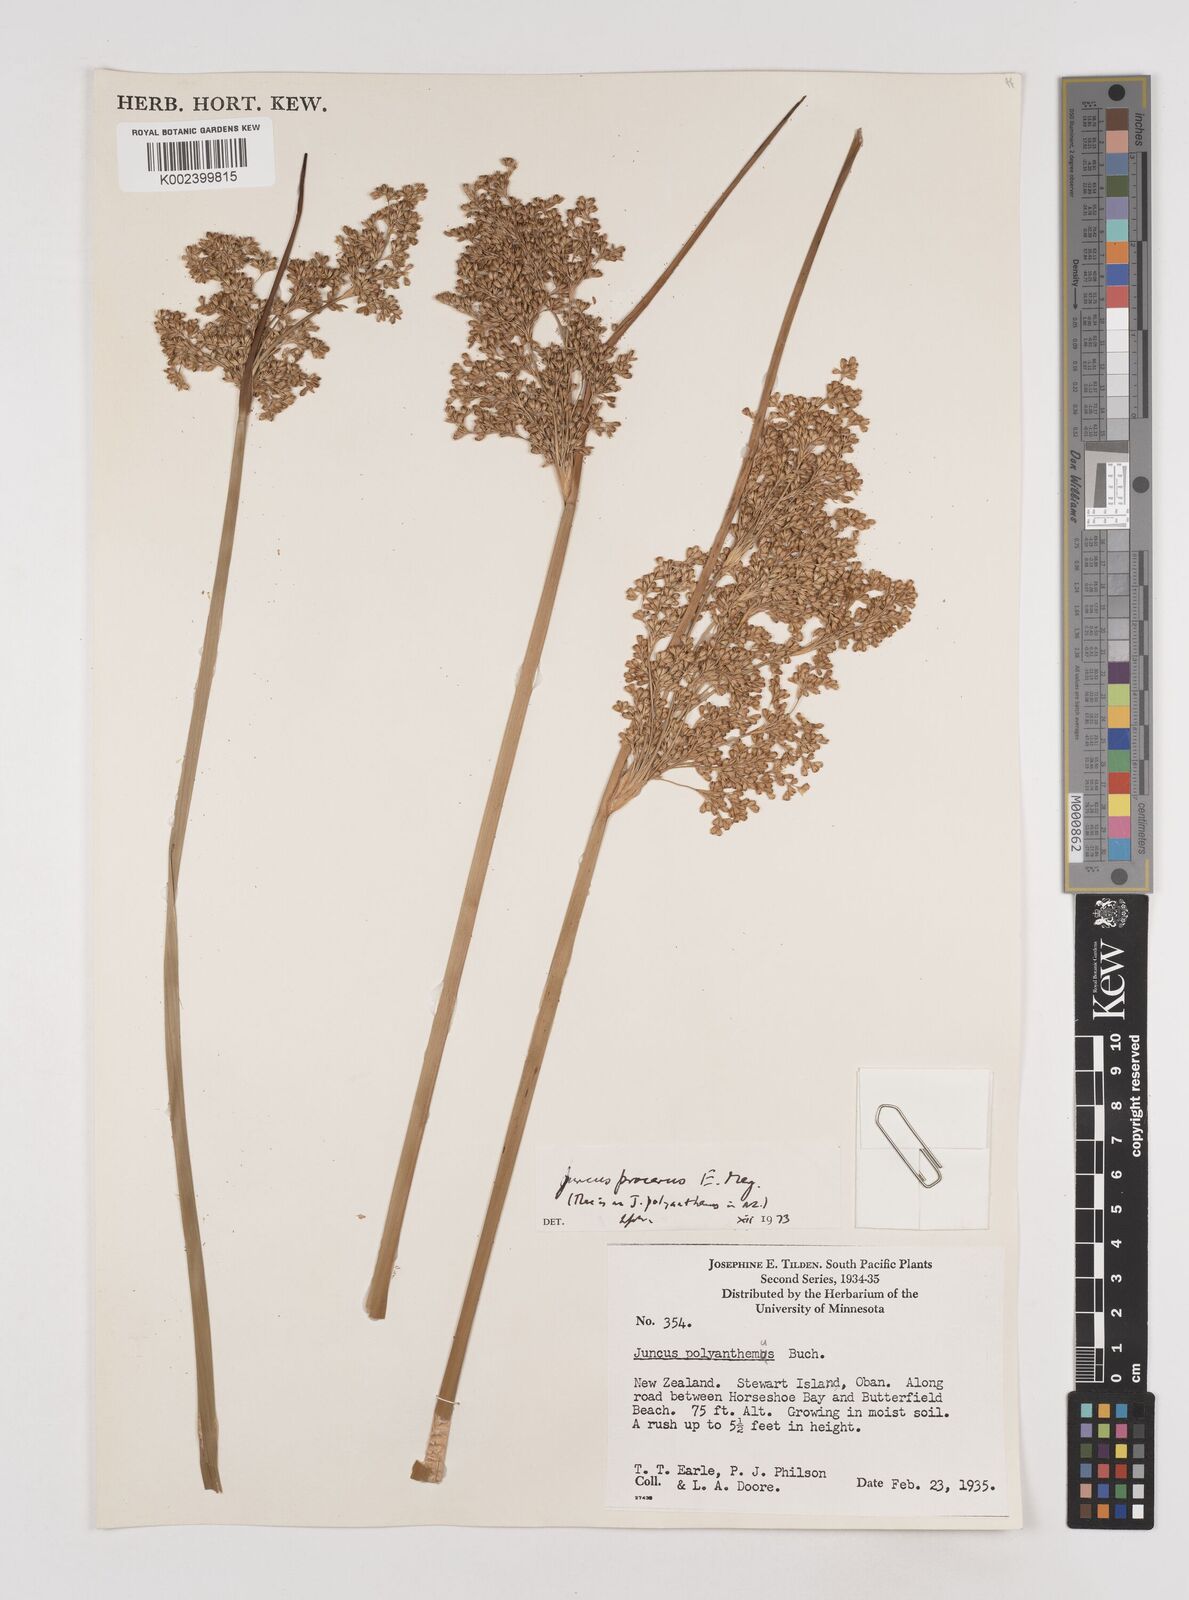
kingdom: Plantae
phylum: Tracheophyta
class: Liliopsida
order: Poales
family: Juncaceae
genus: Juncus
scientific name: Juncus procerus
